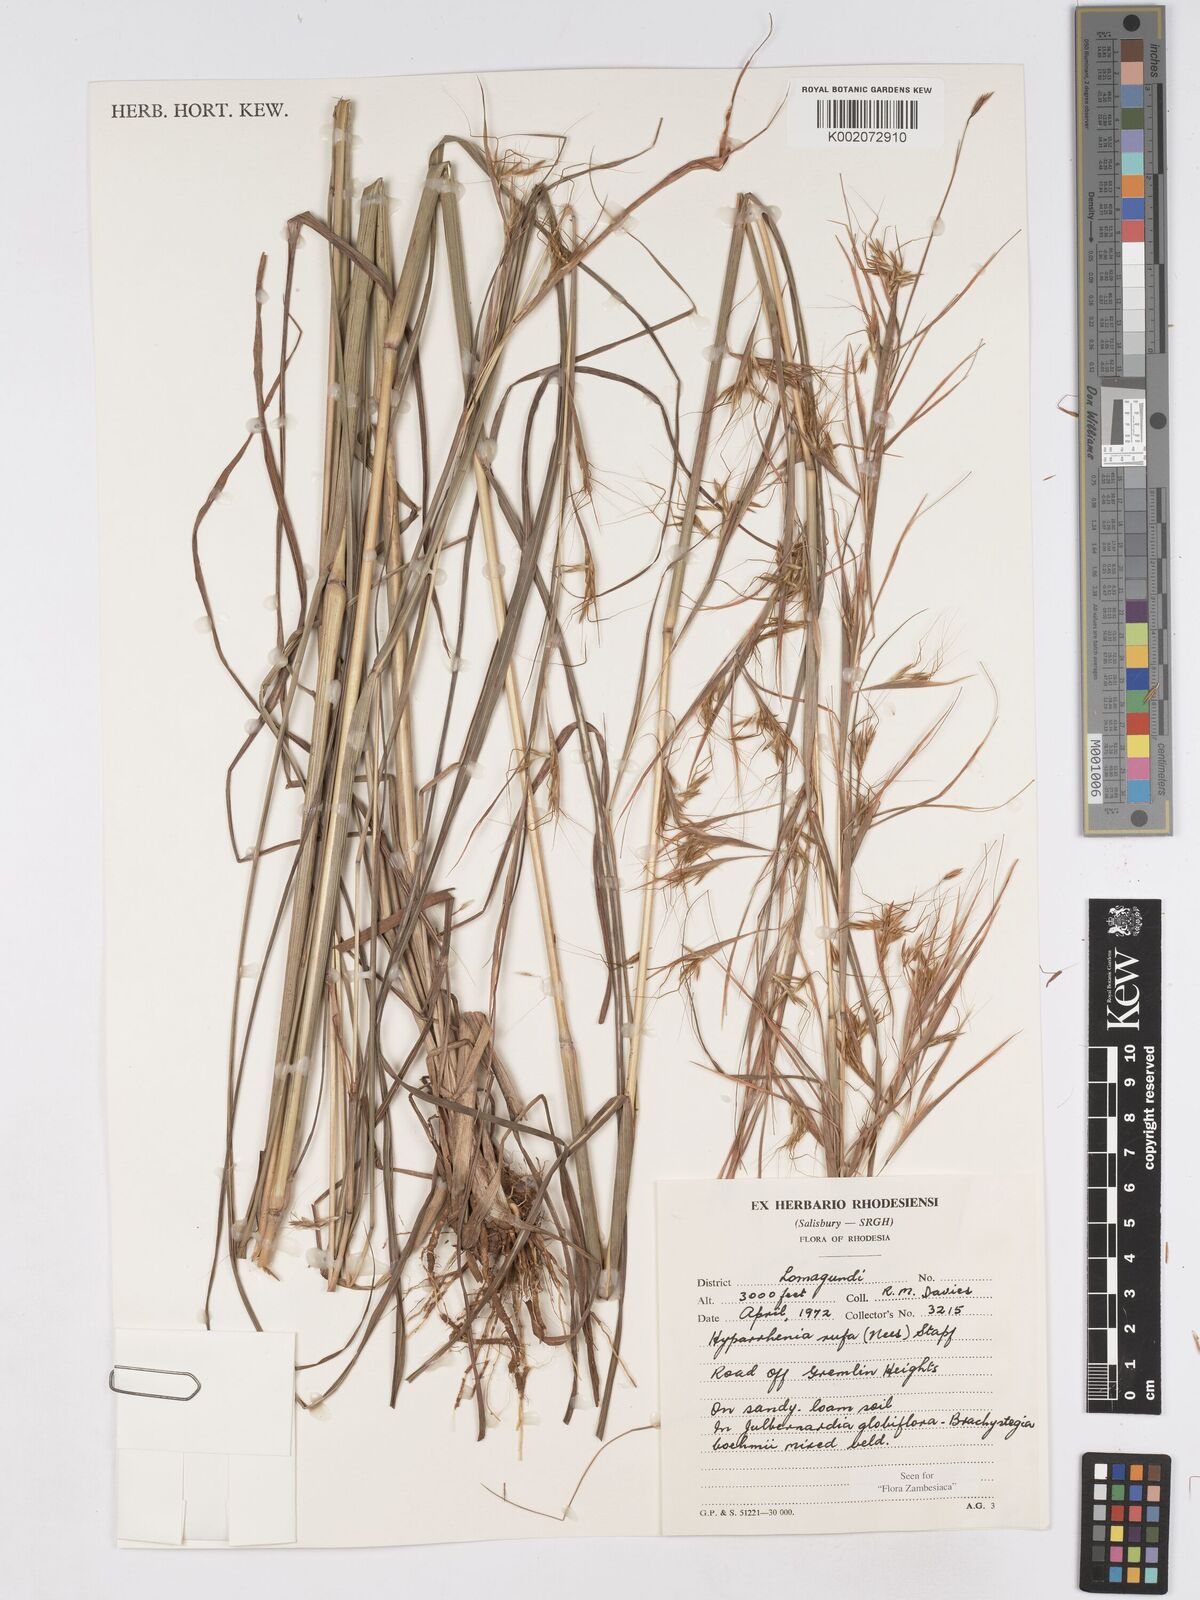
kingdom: Plantae
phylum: Tracheophyta
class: Liliopsida
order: Poales
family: Poaceae
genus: Hyparrhenia
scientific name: Hyparrhenia rufa
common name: Jaraguagrass
